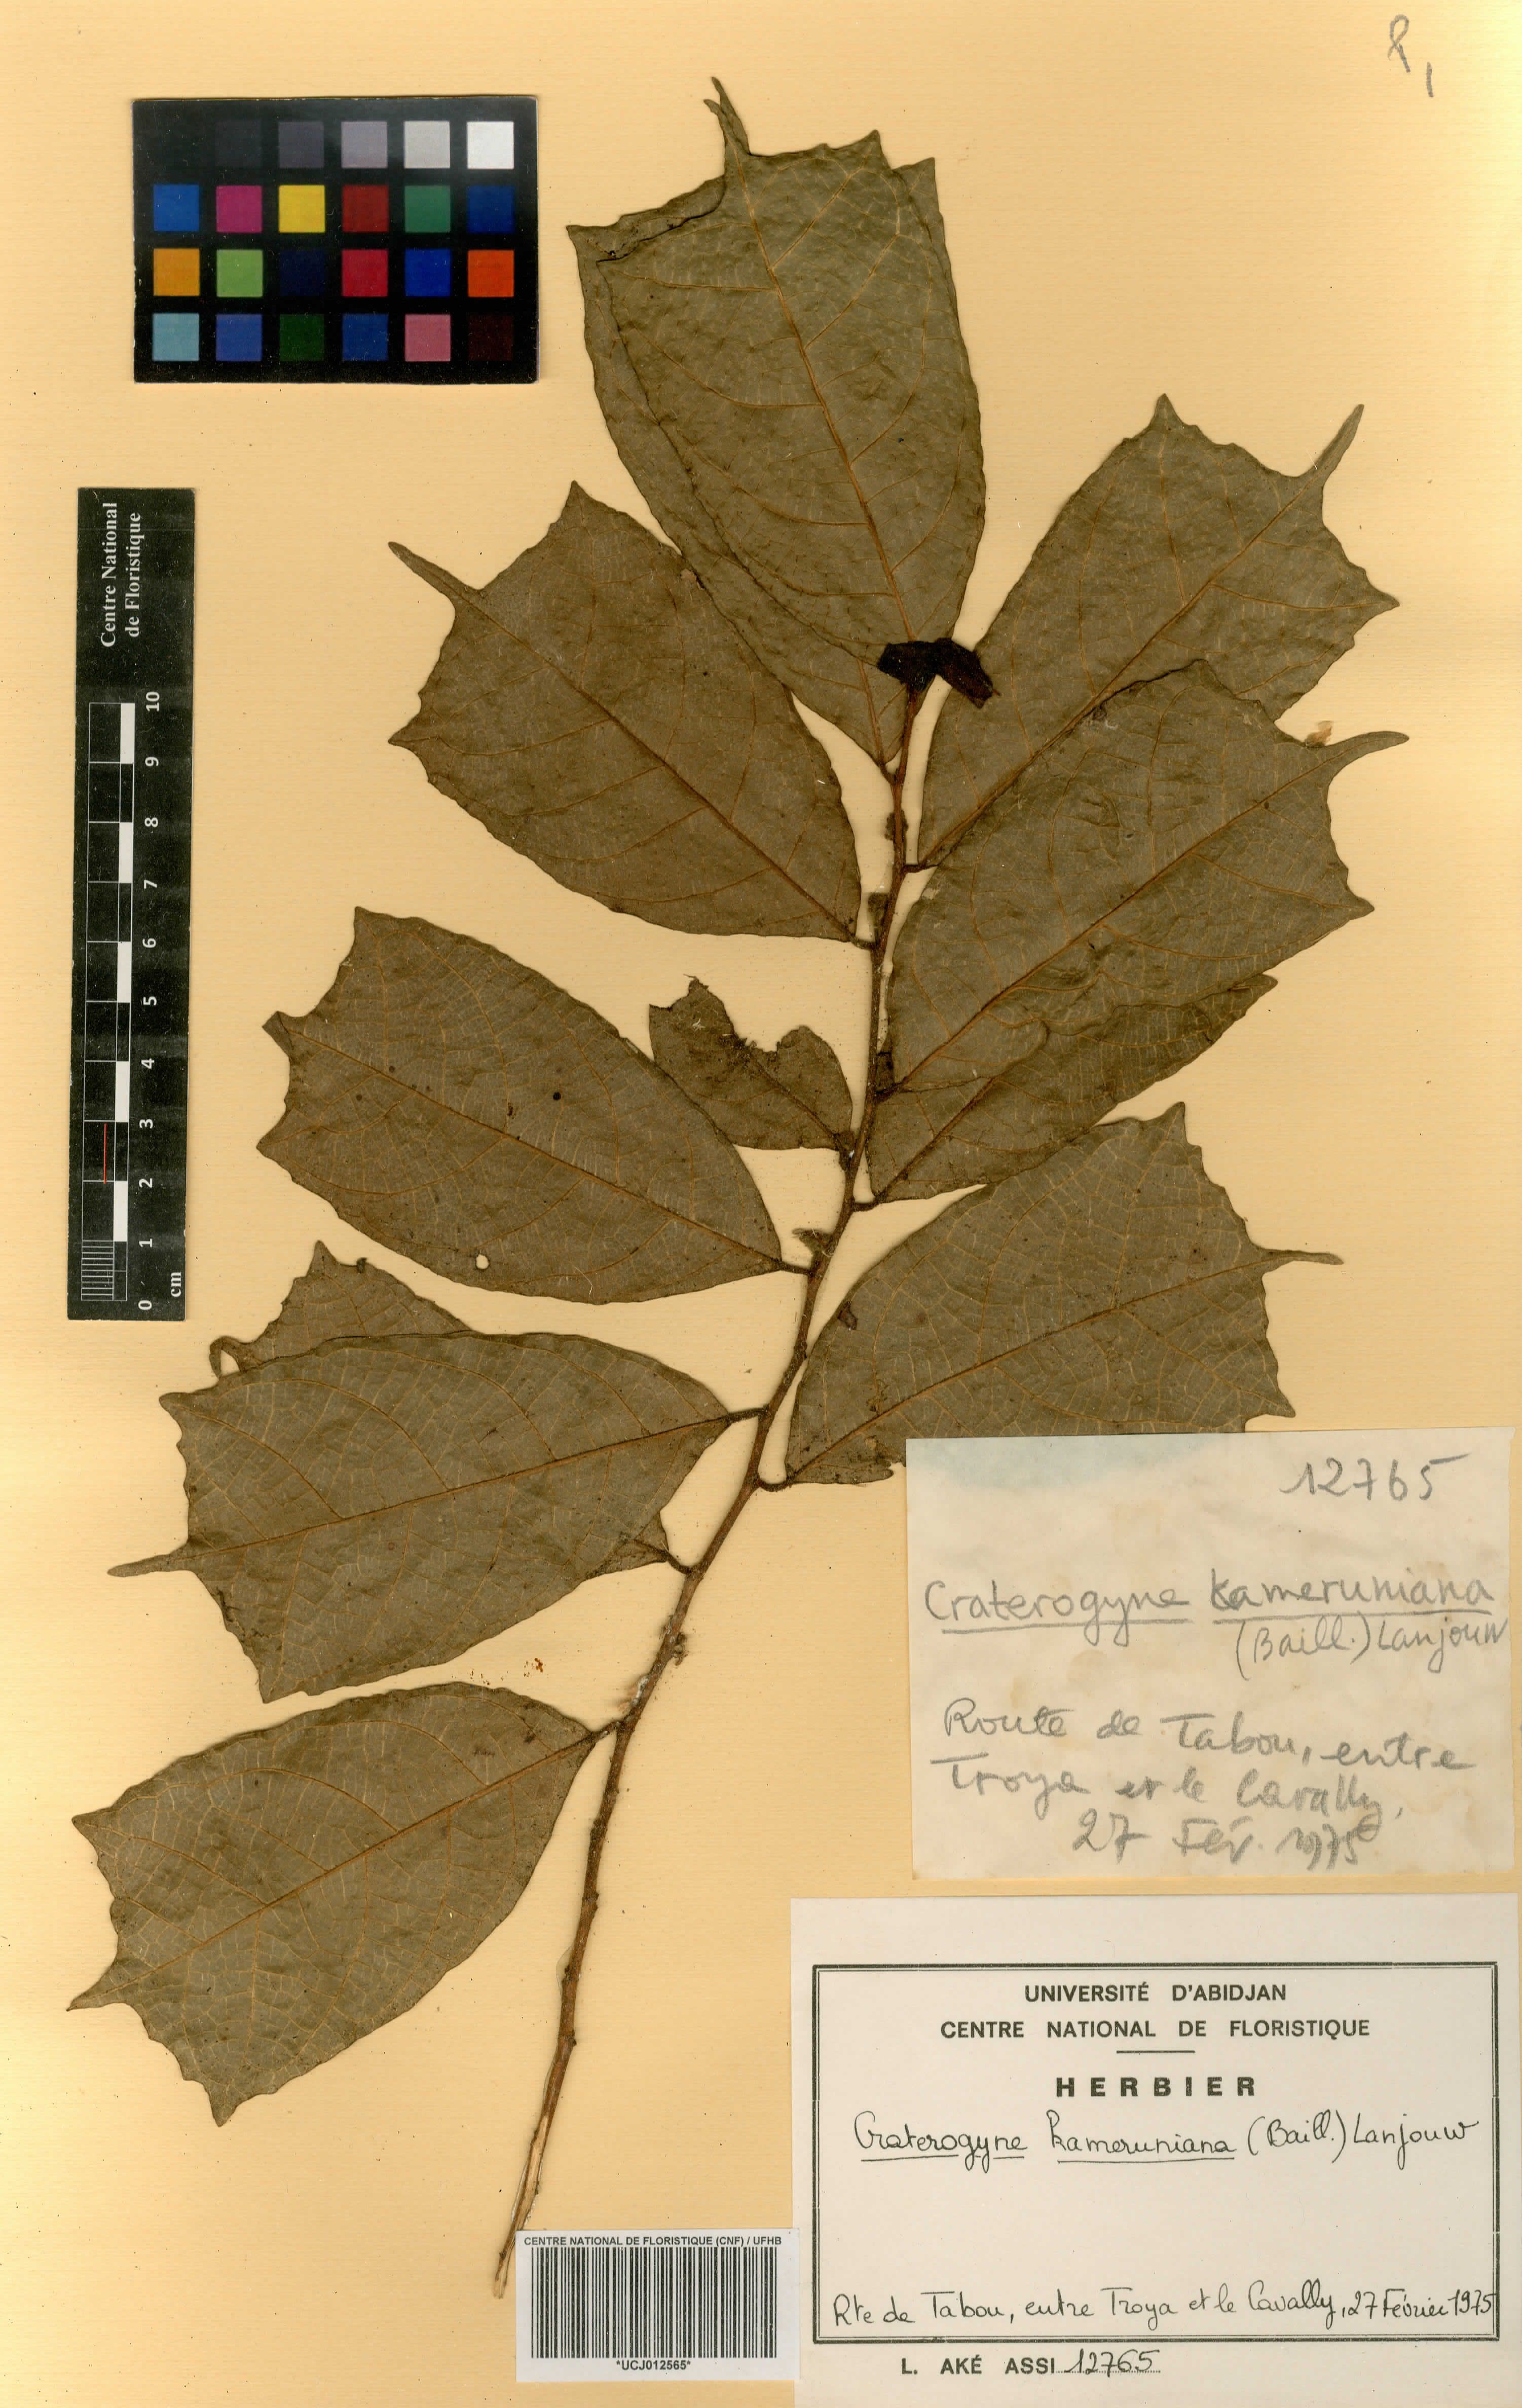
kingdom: Plantae
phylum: Tracheophyta
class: Magnoliopsida
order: Rosales
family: Moraceae
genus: Dorstenia
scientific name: Dorstenia kameruniana
